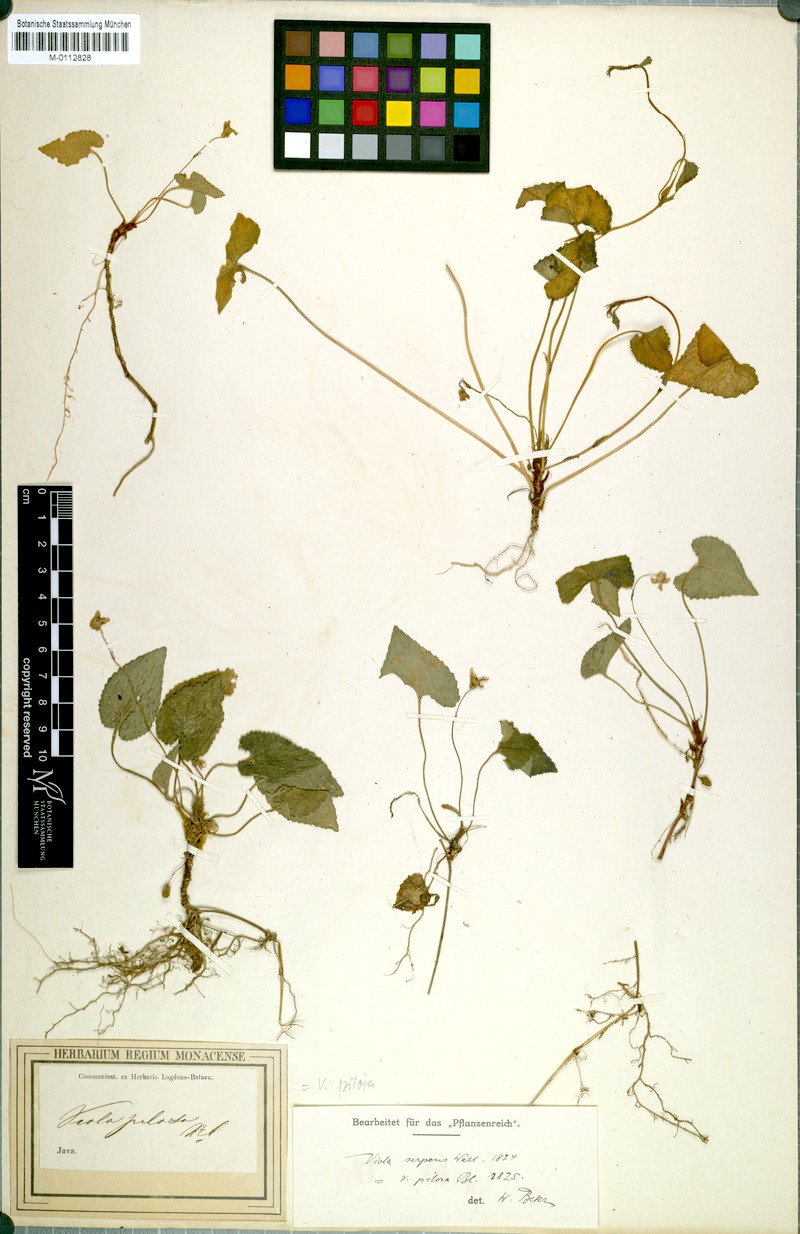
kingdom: Plantae
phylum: Tracheophyta
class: Magnoliopsida
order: Malpighiales
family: Violaceae
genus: Viola
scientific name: Viola pilosa
